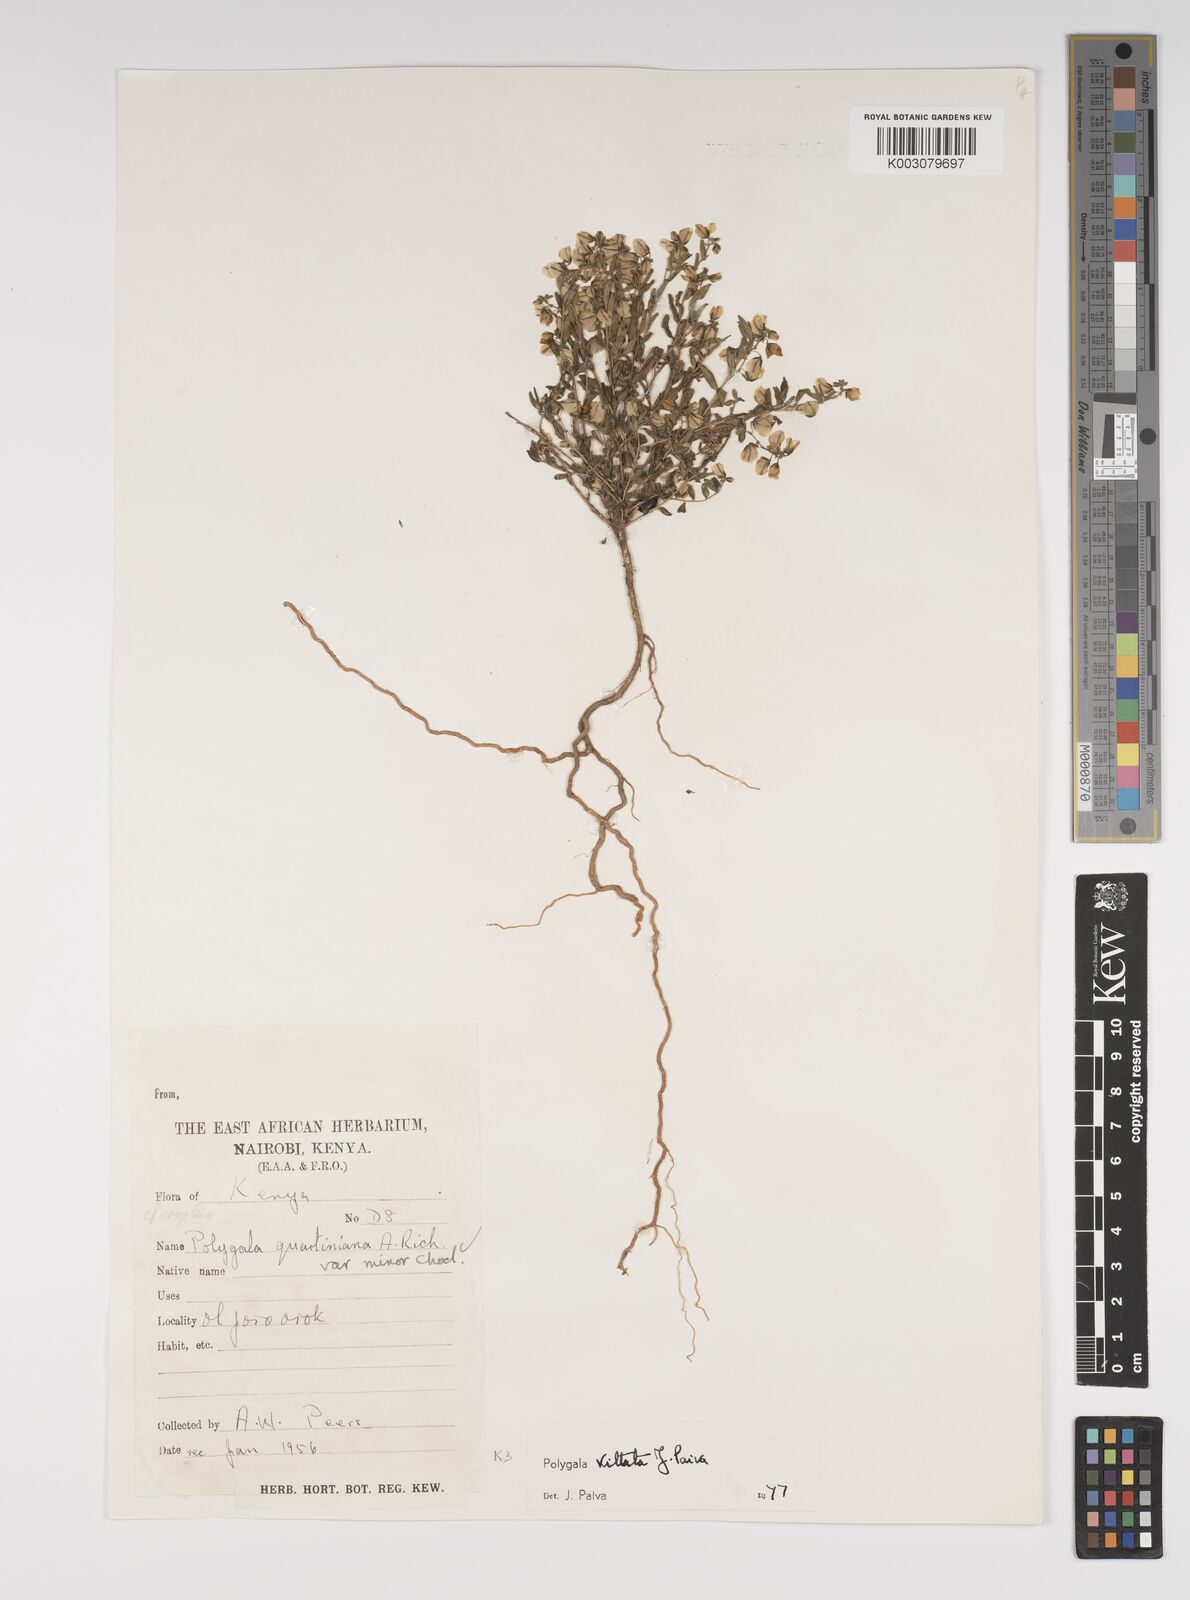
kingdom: Plantae
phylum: Tracheophyta
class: Magnoliopsida
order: Fabales
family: Polygalaceae
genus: Polygala
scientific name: Polygala vittata
